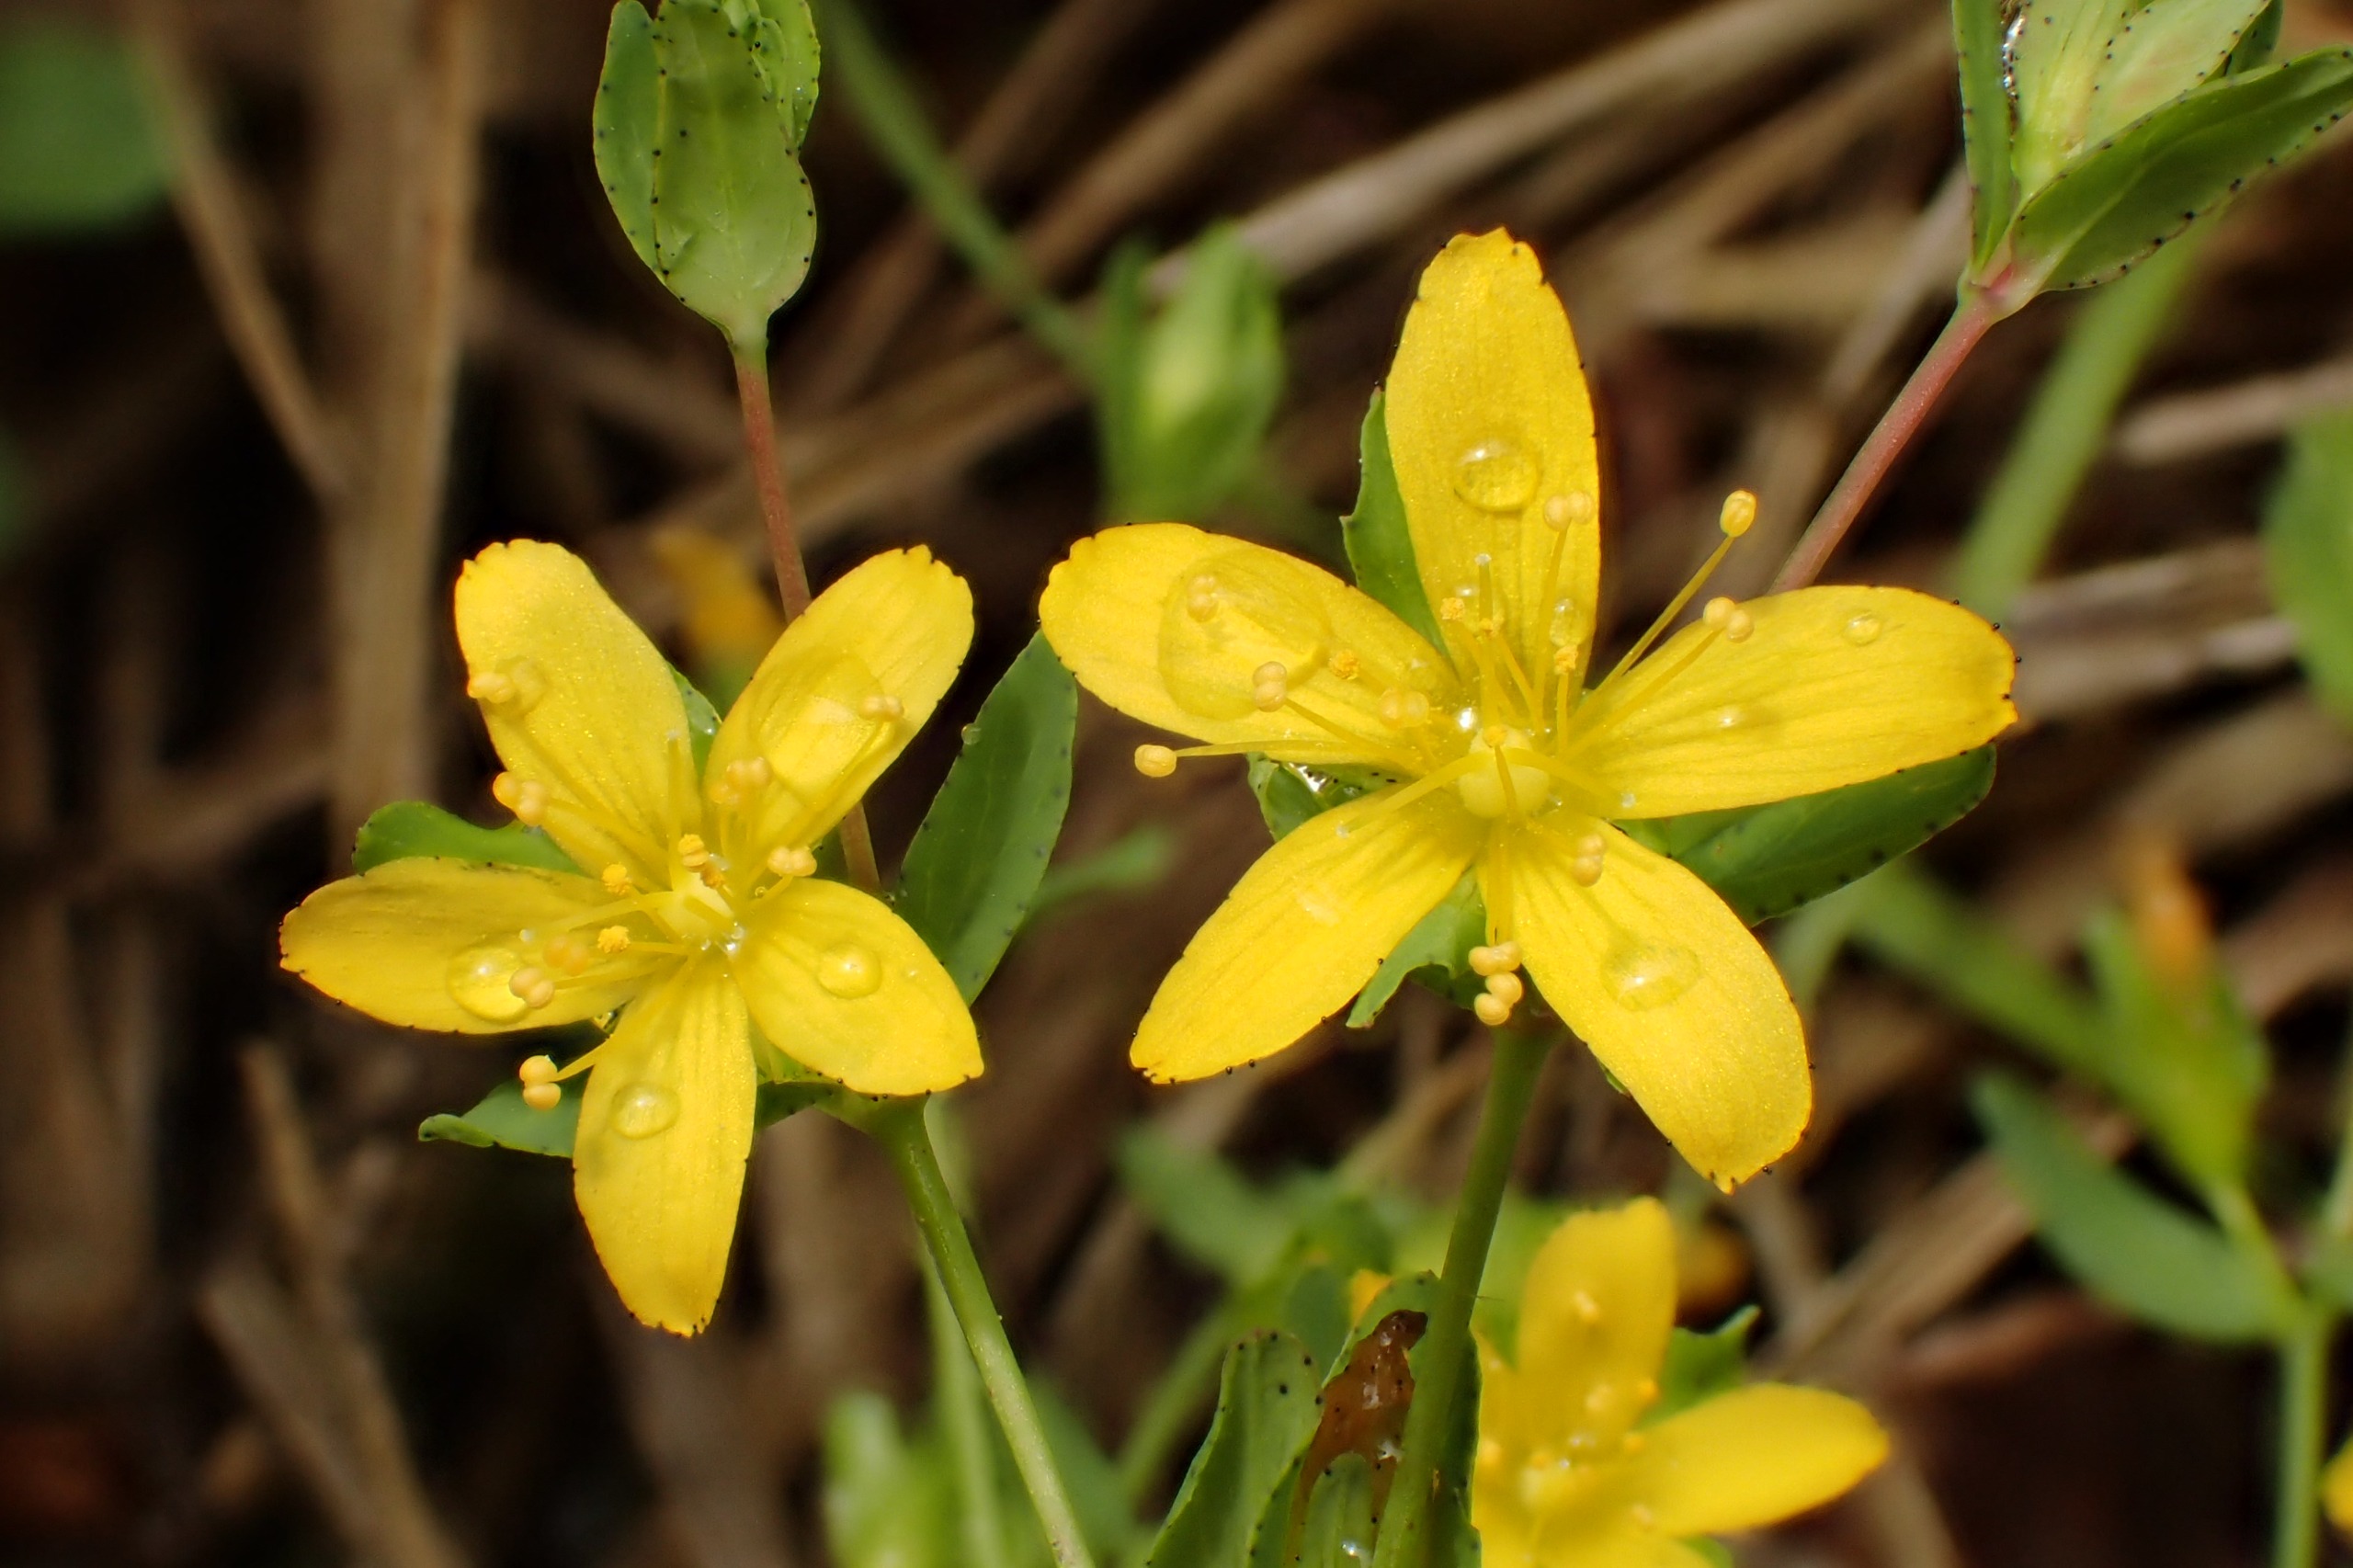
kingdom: Plantae
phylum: Tracheophyta
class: Magnoliopsida
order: Malpighiales
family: Hypericaceae
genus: Hypericum
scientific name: Hypericum humifusum
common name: Dværg-perikon
